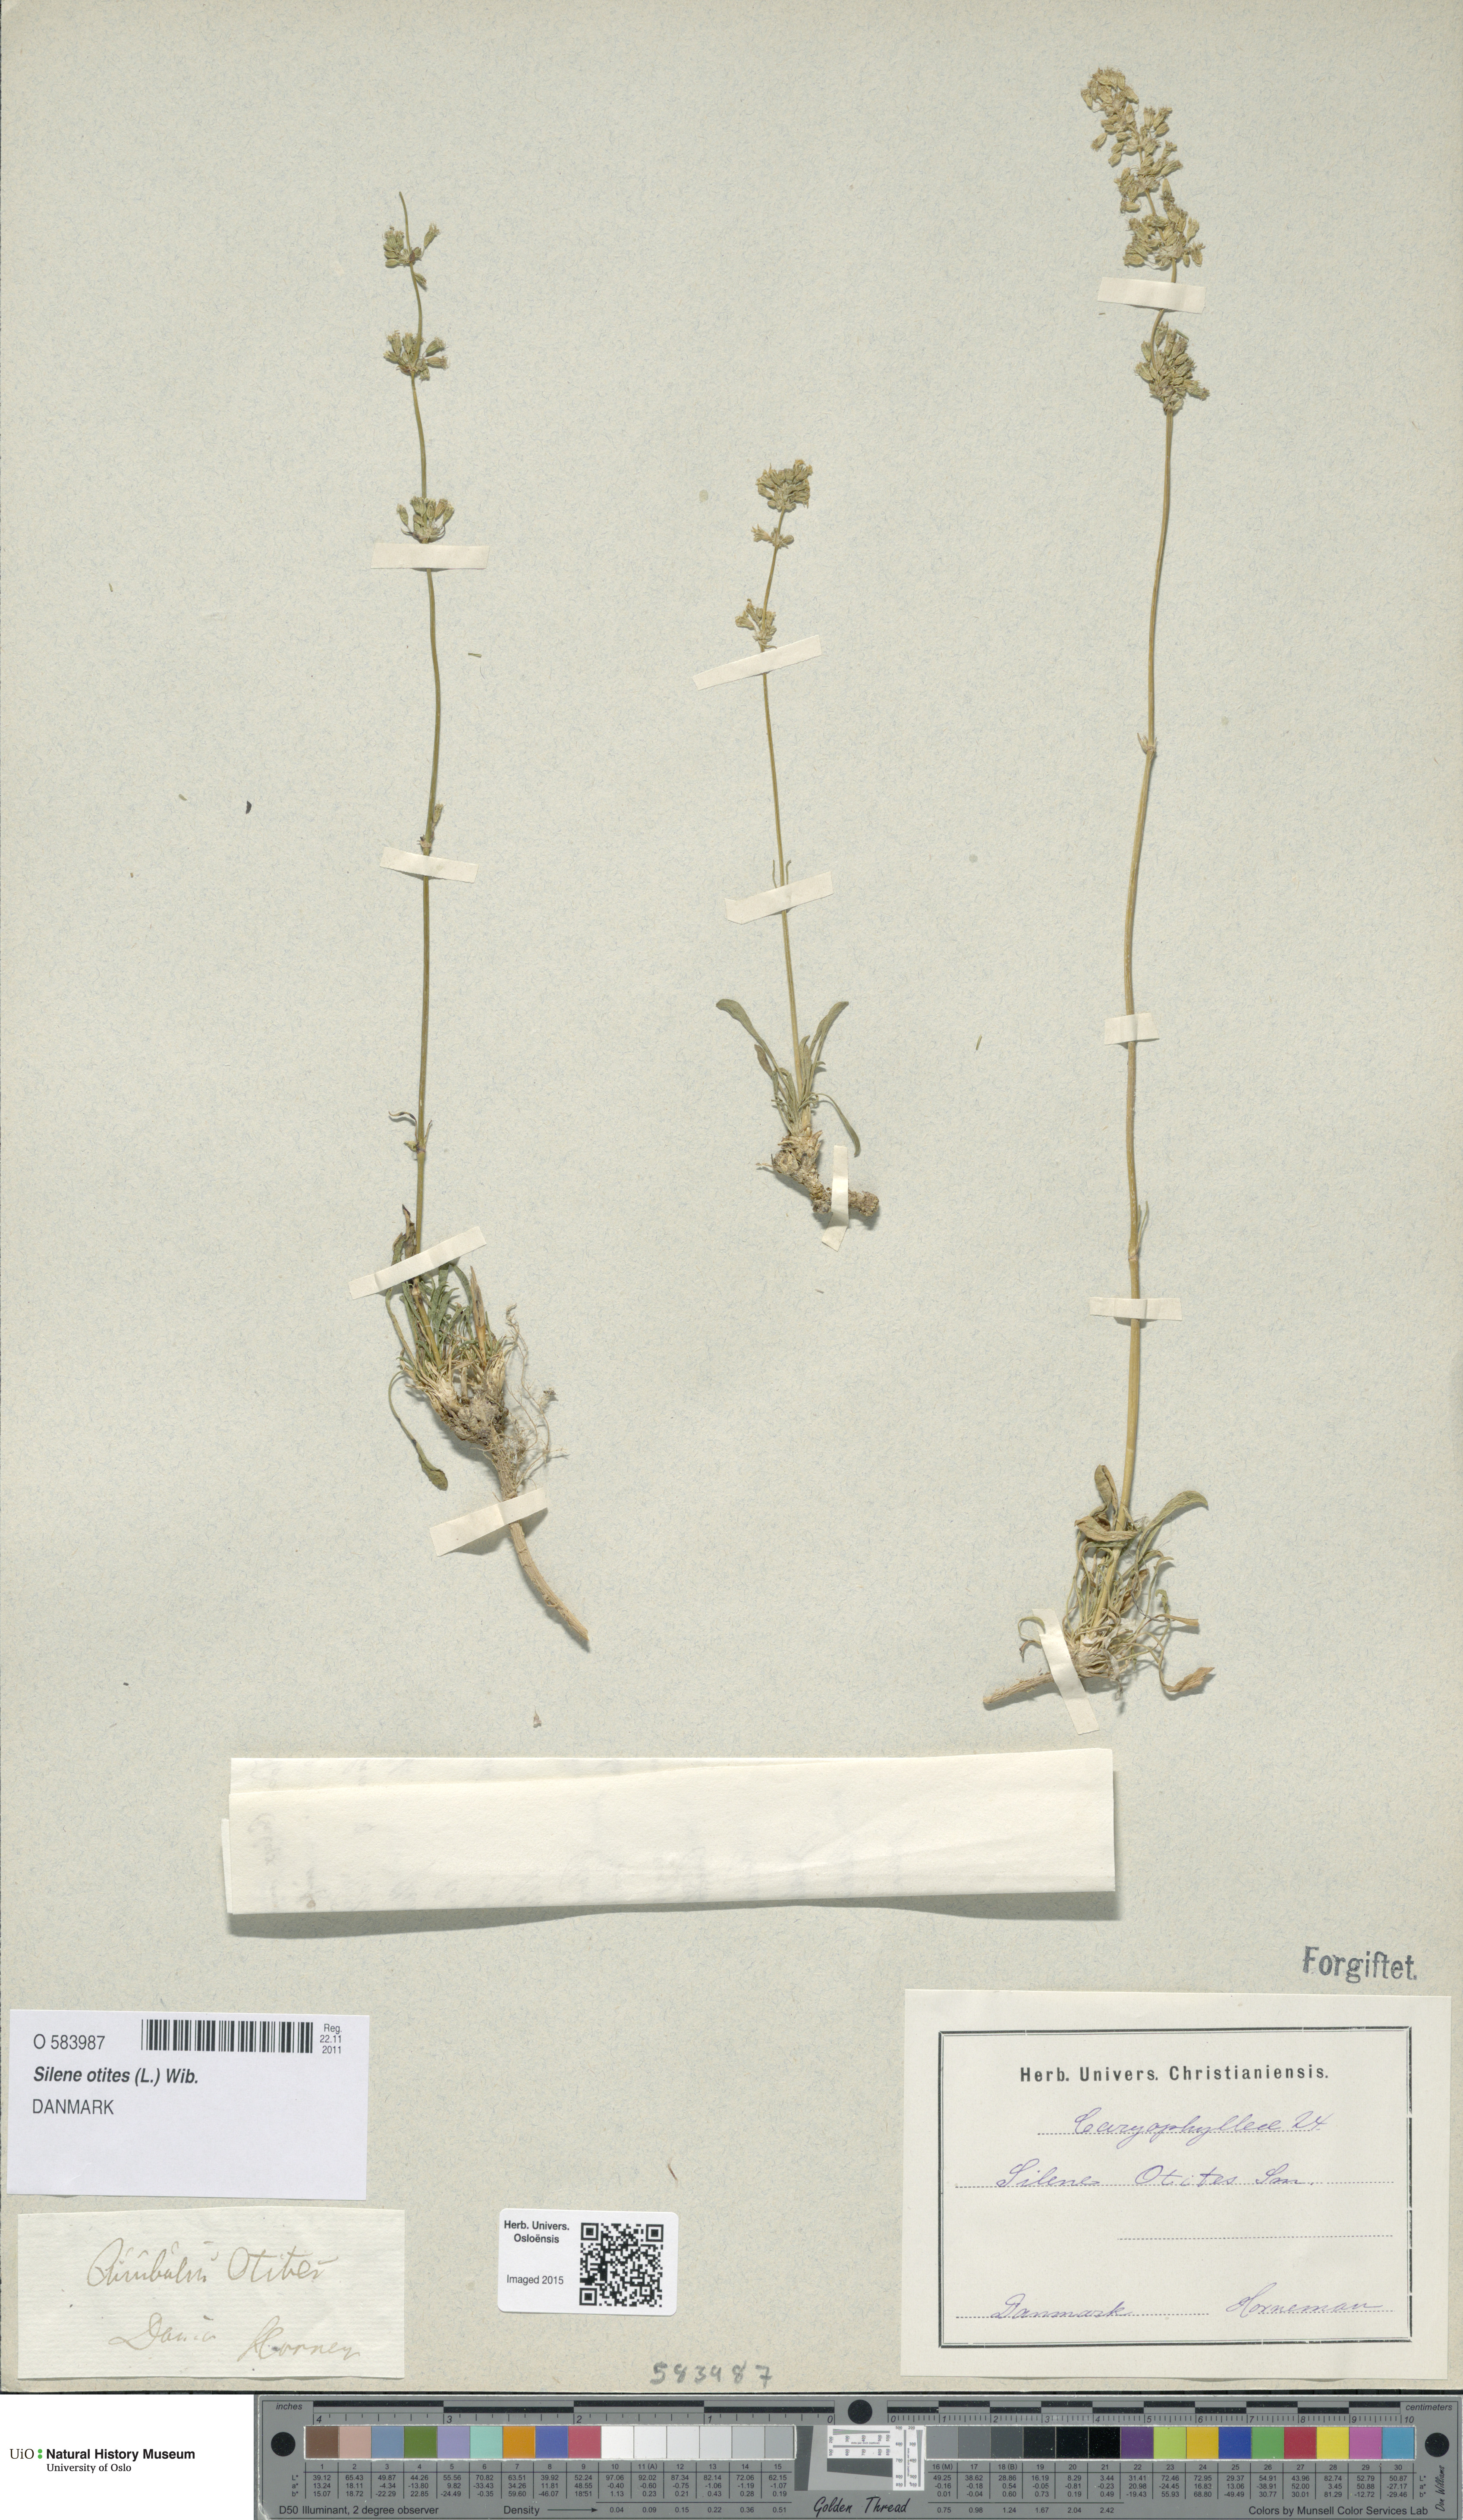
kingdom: Plantae
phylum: Tracheophyta
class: Magnoliopsida
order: Caryophyllales
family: Caryophyllaceae
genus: Silene
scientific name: Silene otites
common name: Spanish catchfly
